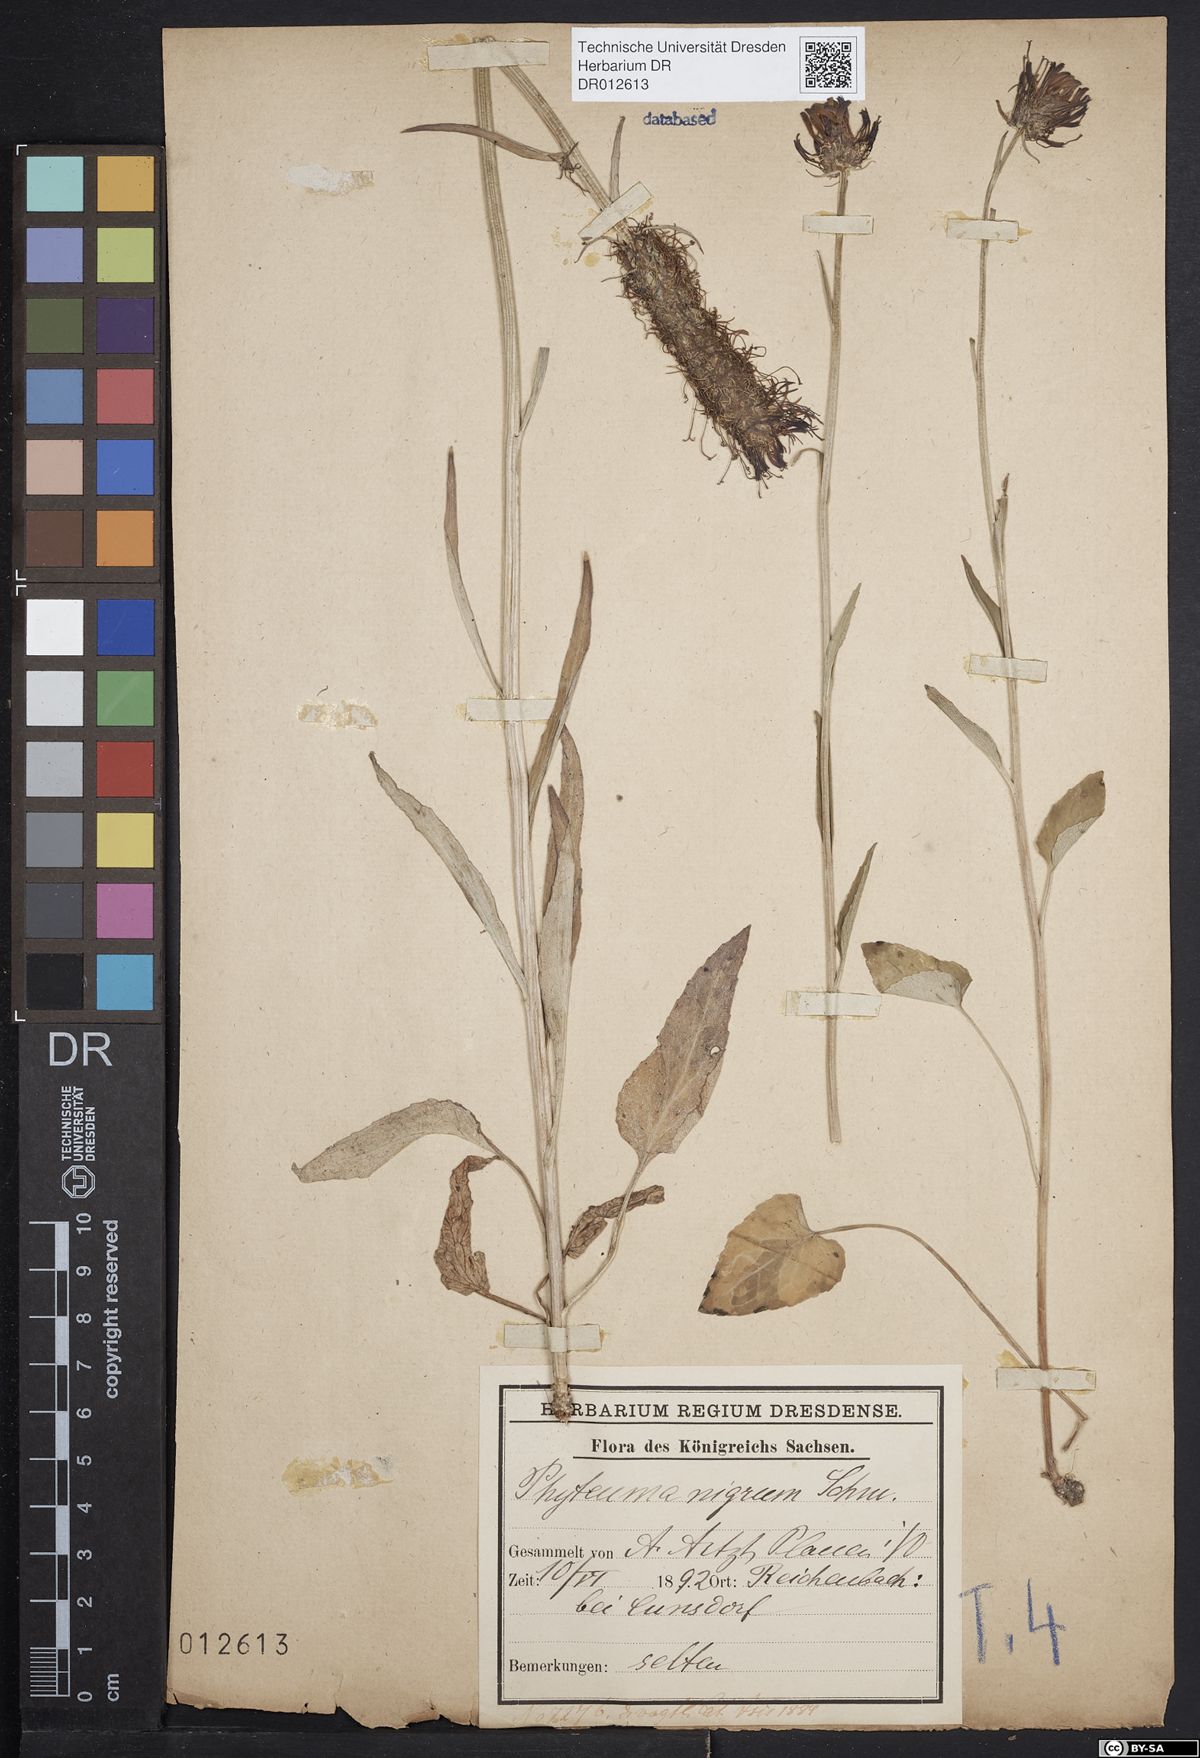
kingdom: Plantae
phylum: Tracheophyta
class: Magnoliopsida
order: Asterales
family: Campanulaceae
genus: Phyteuma
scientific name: Phyteuma nigrum
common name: Black rampion
